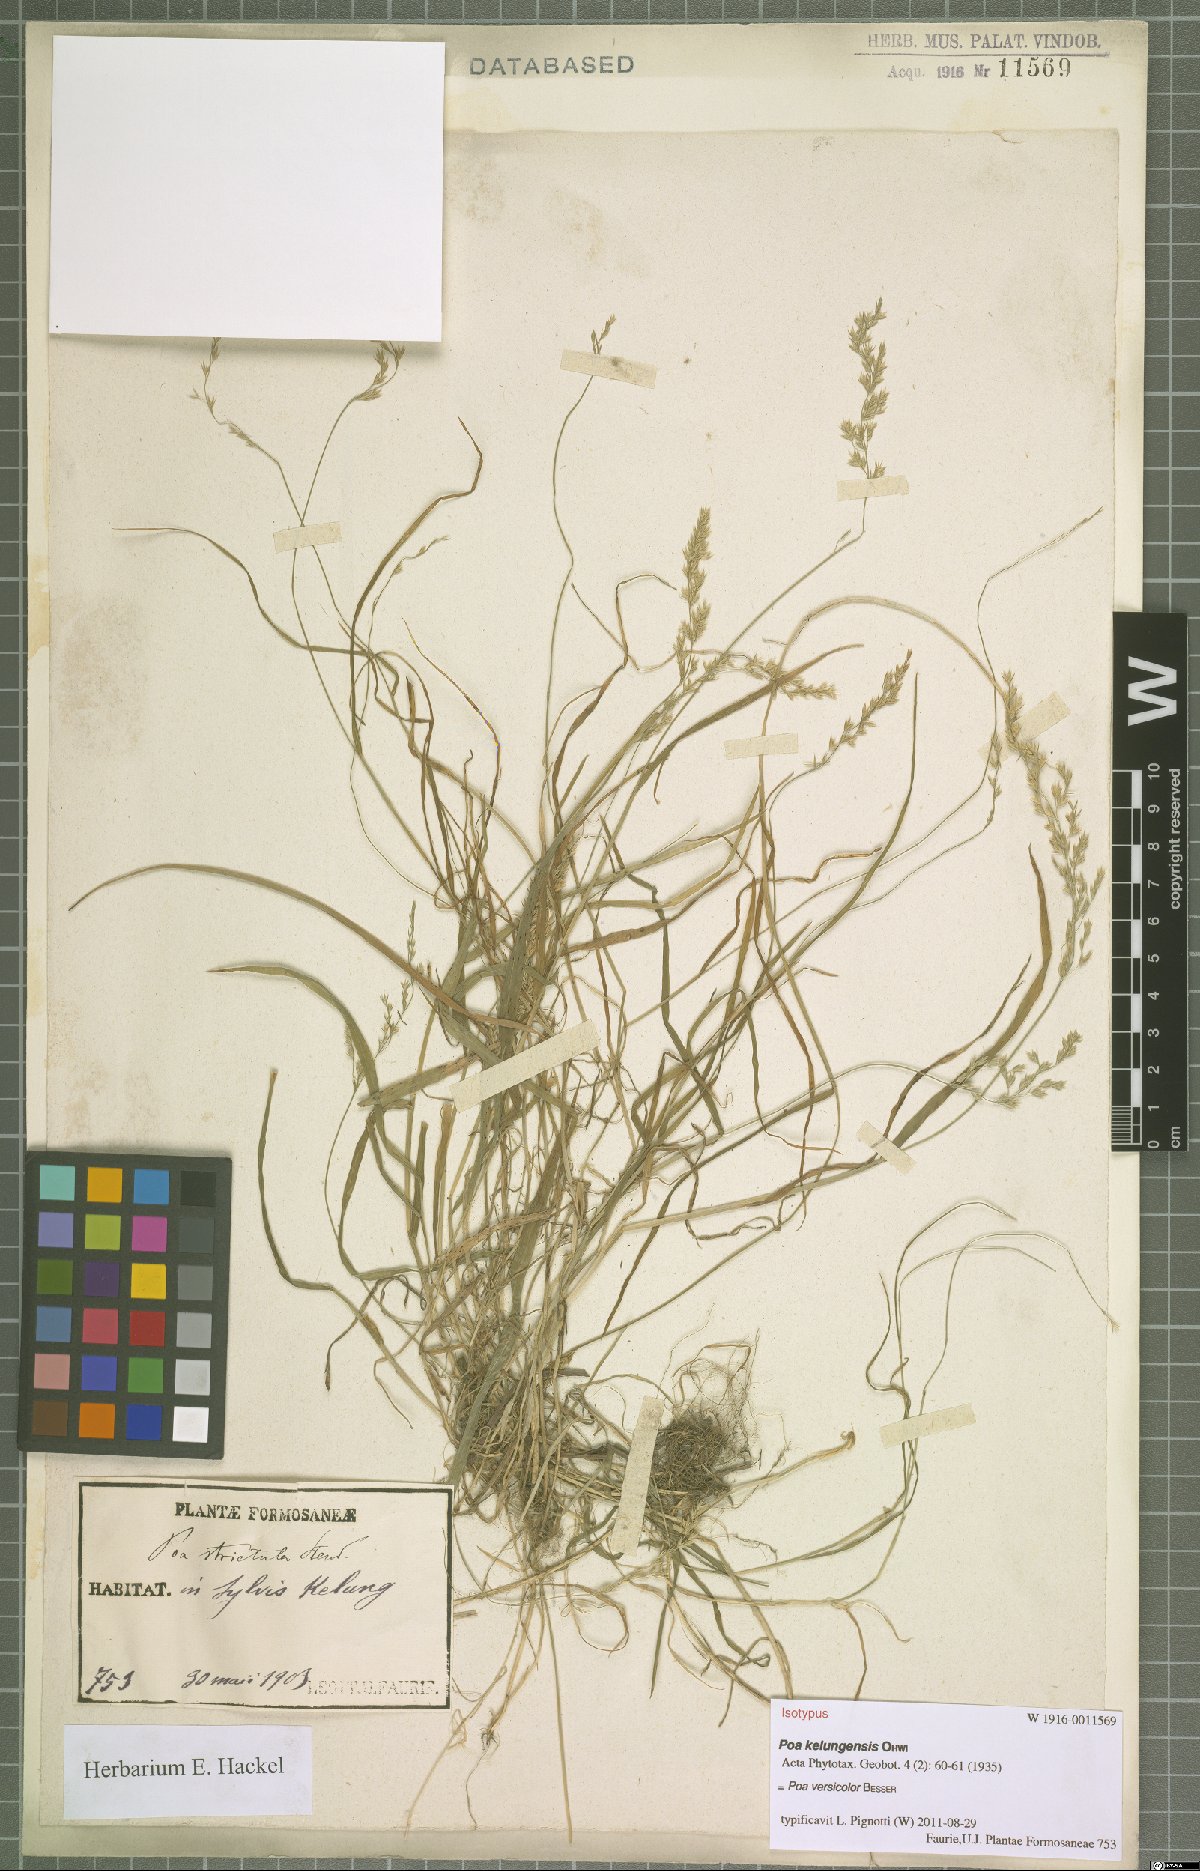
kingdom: Plantae
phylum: Tracheophyta
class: Liliopsida
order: Poales
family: Poaceae
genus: Poa
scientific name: Poa versicolor
